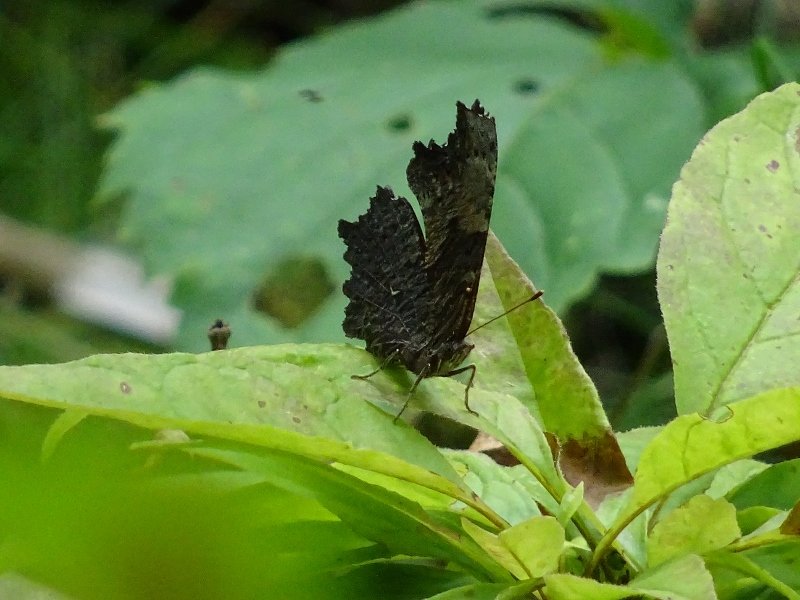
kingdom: Animalia
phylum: Arthropoda
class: Insecta
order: Lepidoptera
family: Nymphalidae
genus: Polygonia
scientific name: Polygonia progne
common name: Gray Comma
